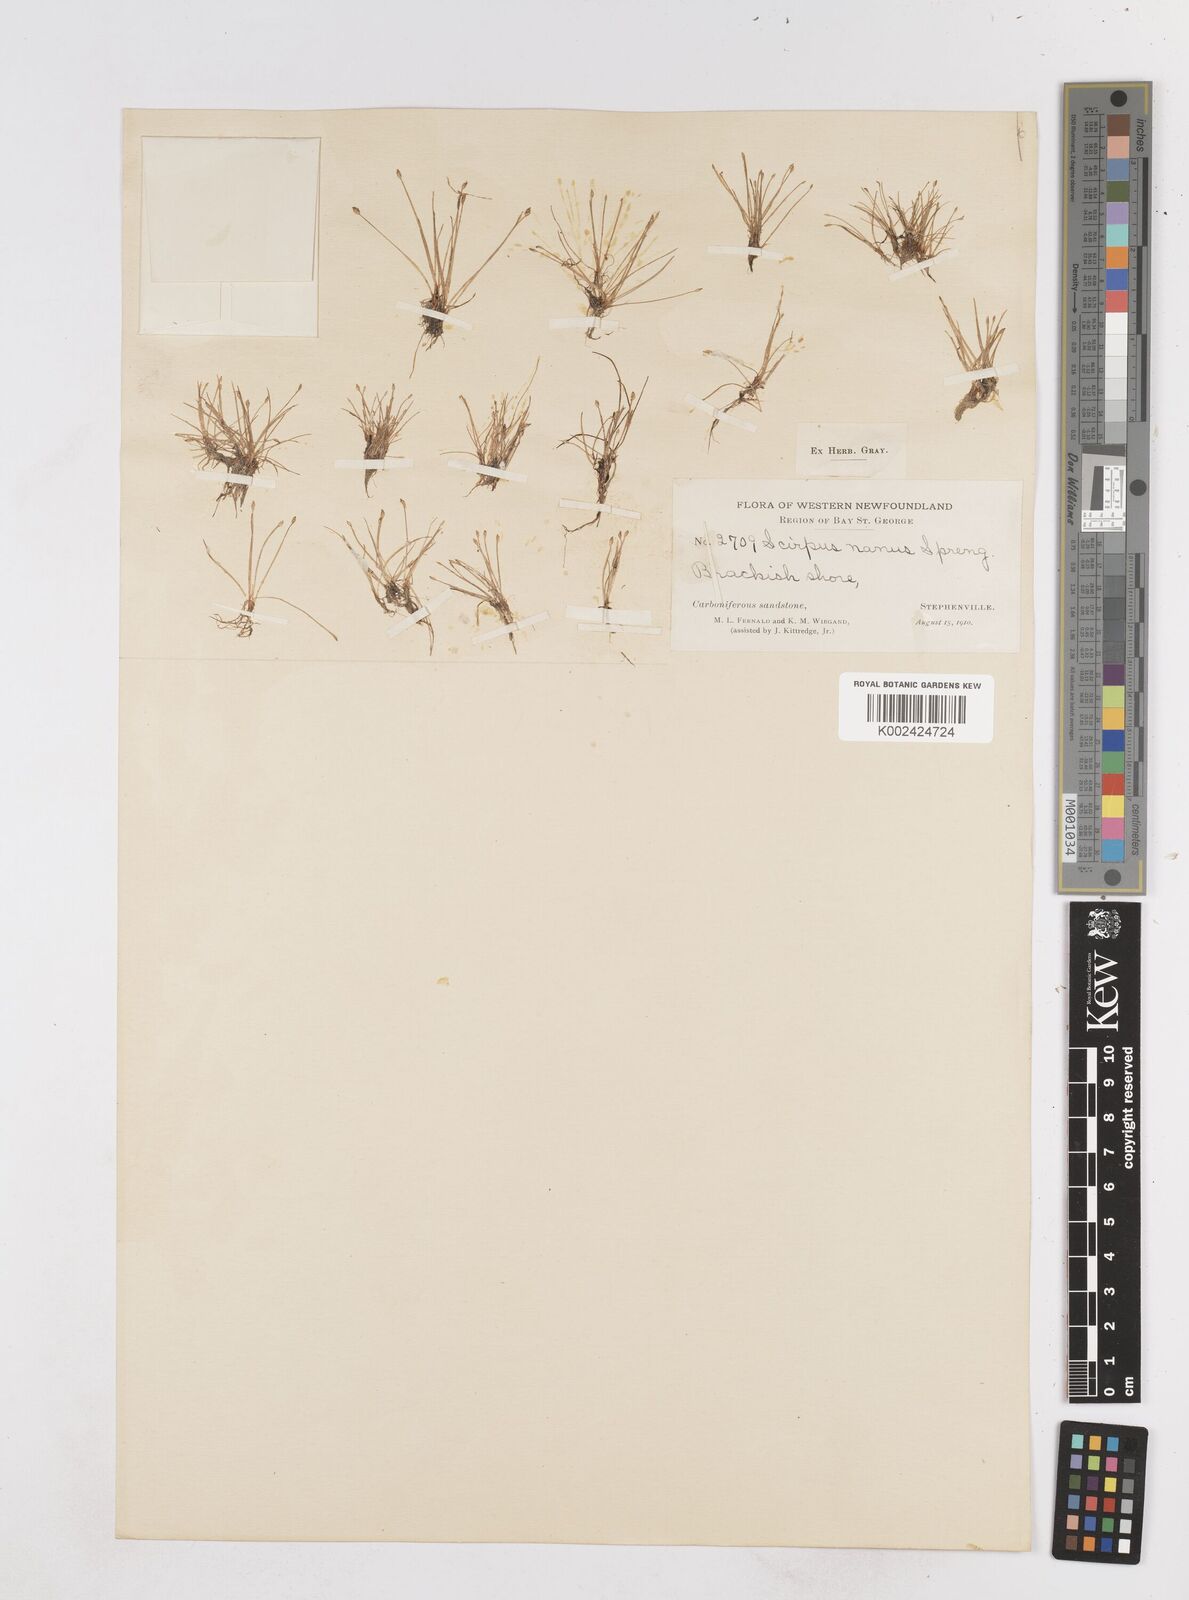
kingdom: Plantae
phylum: Tracheophyta
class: Liliopsida
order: Poales
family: Cyperaceae
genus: Eleocharis
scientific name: Eleocharis parvula
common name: Dwarf spike-rush
